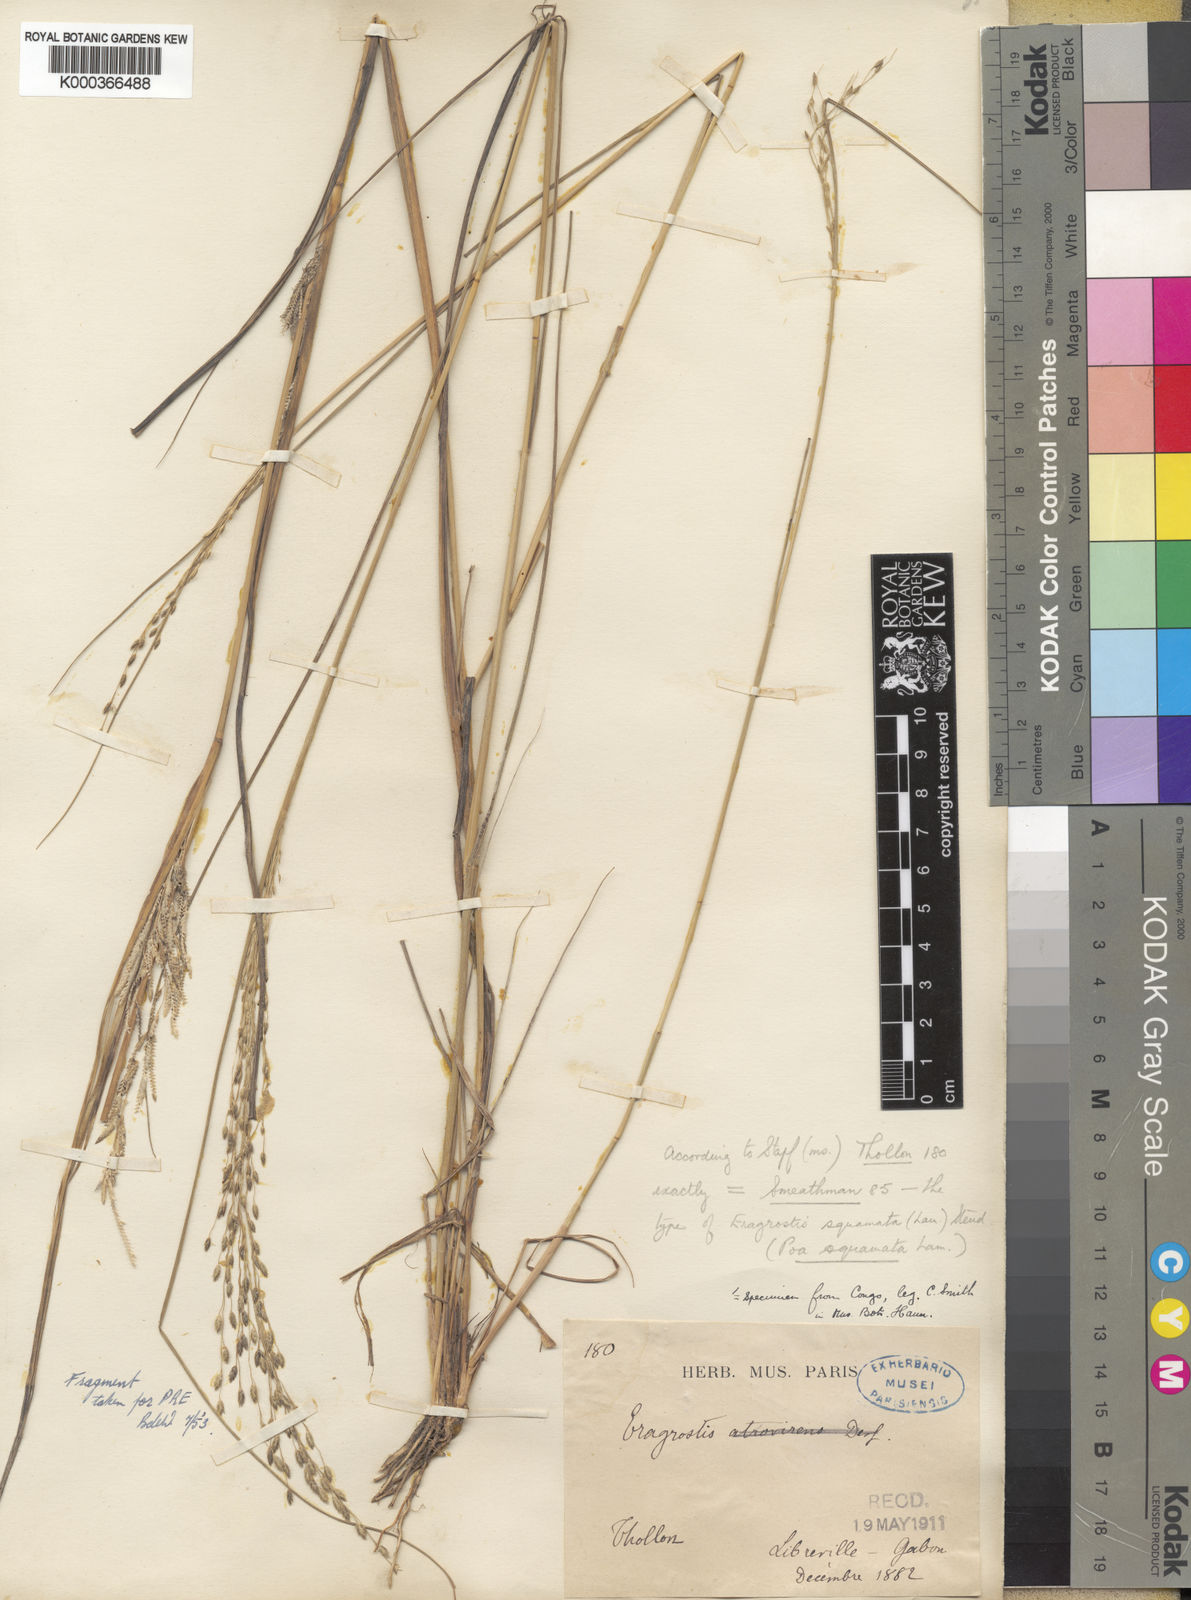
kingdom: Plantae
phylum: Tracheophyta
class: Liliopsida
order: Poales
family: Poaceae
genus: Eragrostis
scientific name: Eragrostis squamata
